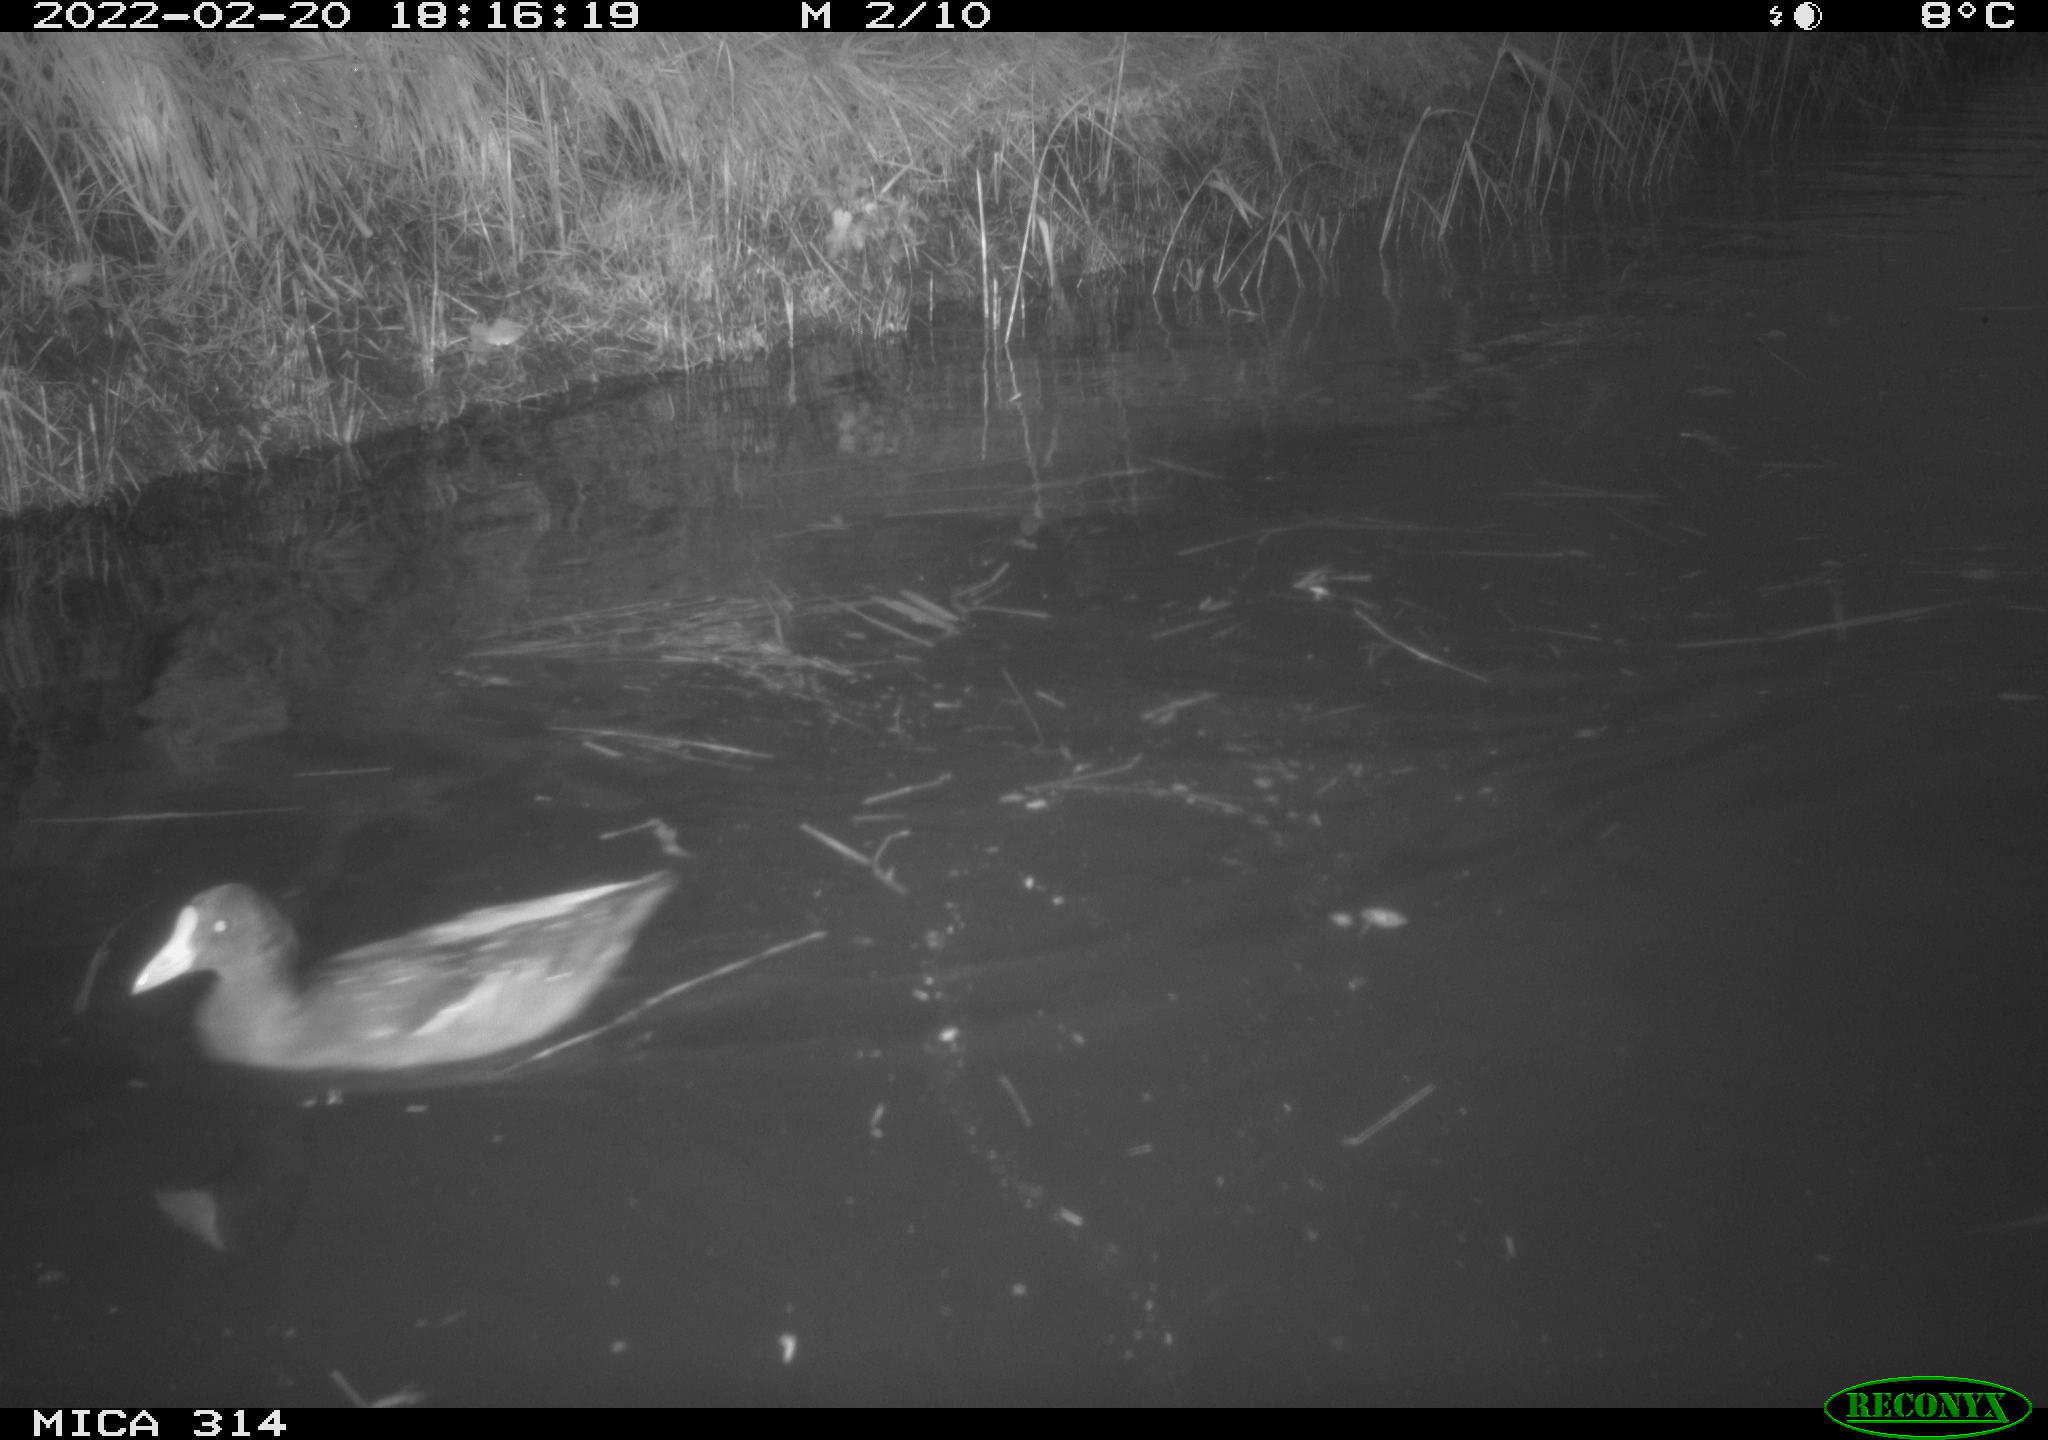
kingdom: Animalia
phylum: Chordata
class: Aves
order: Gruiformes
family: Rallidae
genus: Gallinula
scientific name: Gallinula chloropus
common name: Common moorhen
